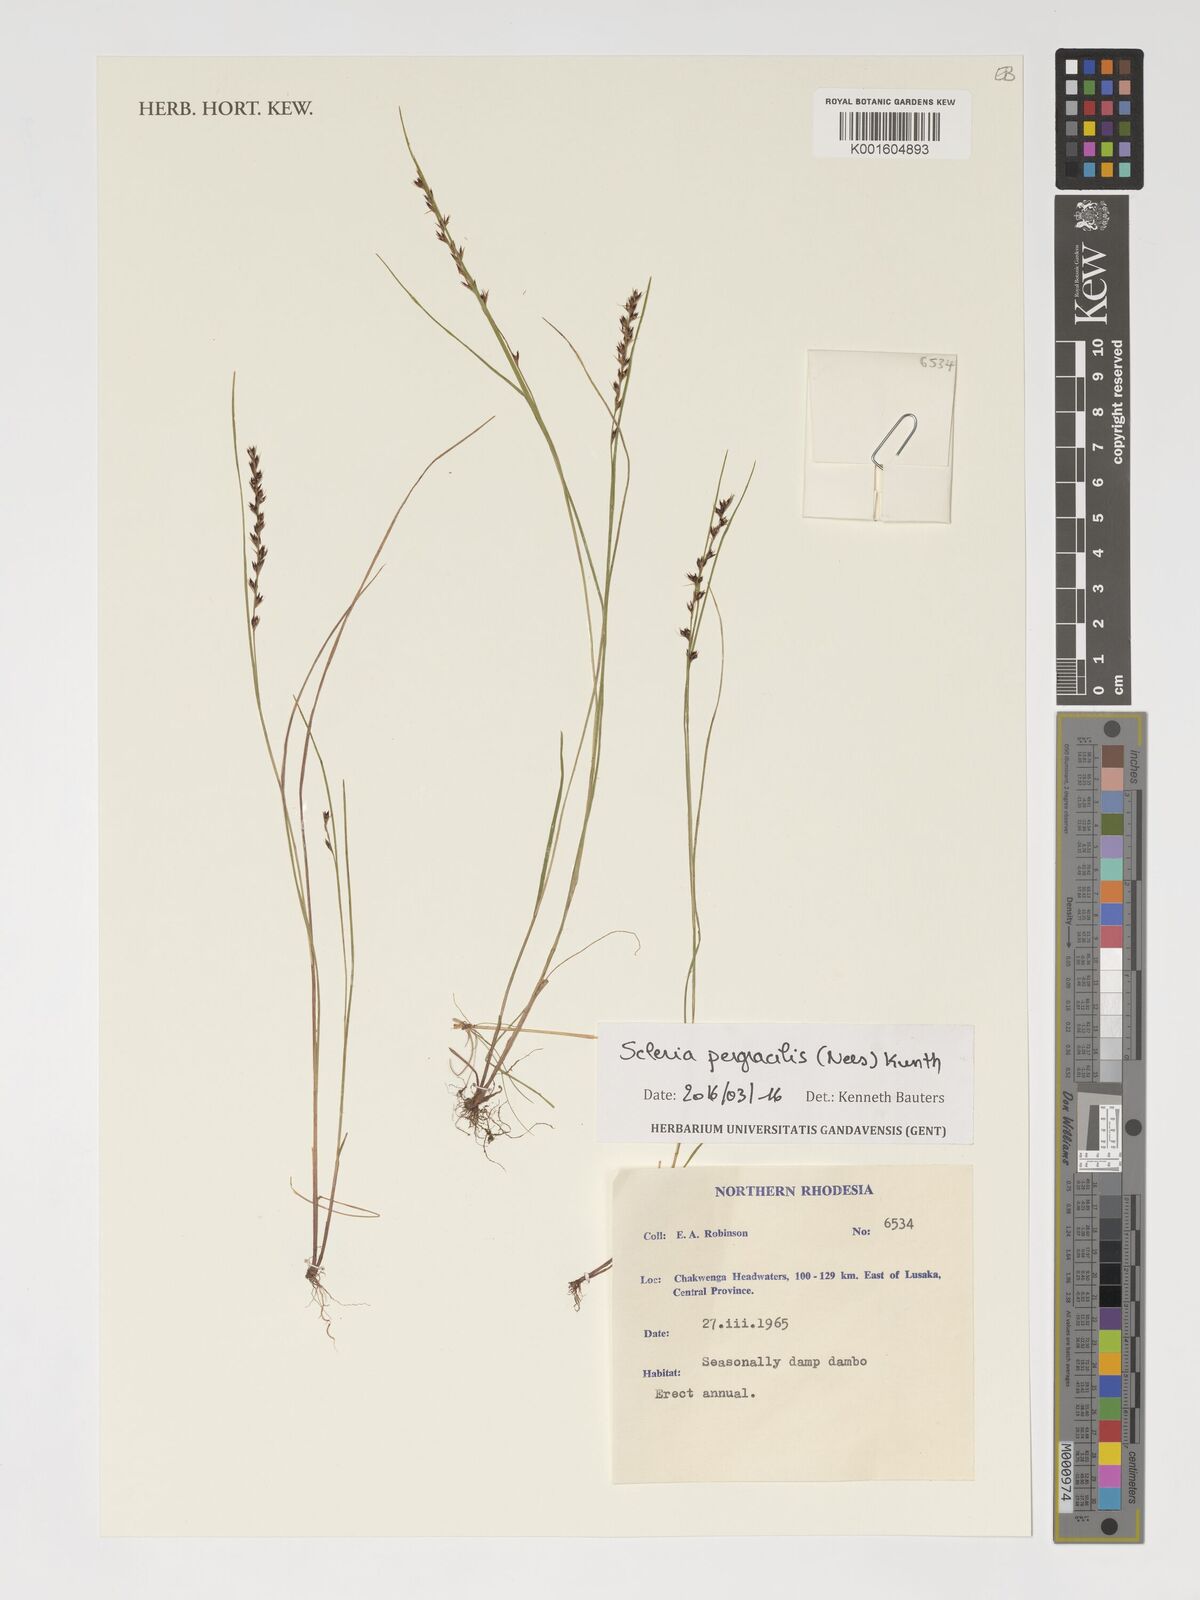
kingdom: Plantae
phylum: Tracheophyta
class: Liliopsida
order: Poales
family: Cyperaceae
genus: Scleria
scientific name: Scleria pergracilis
